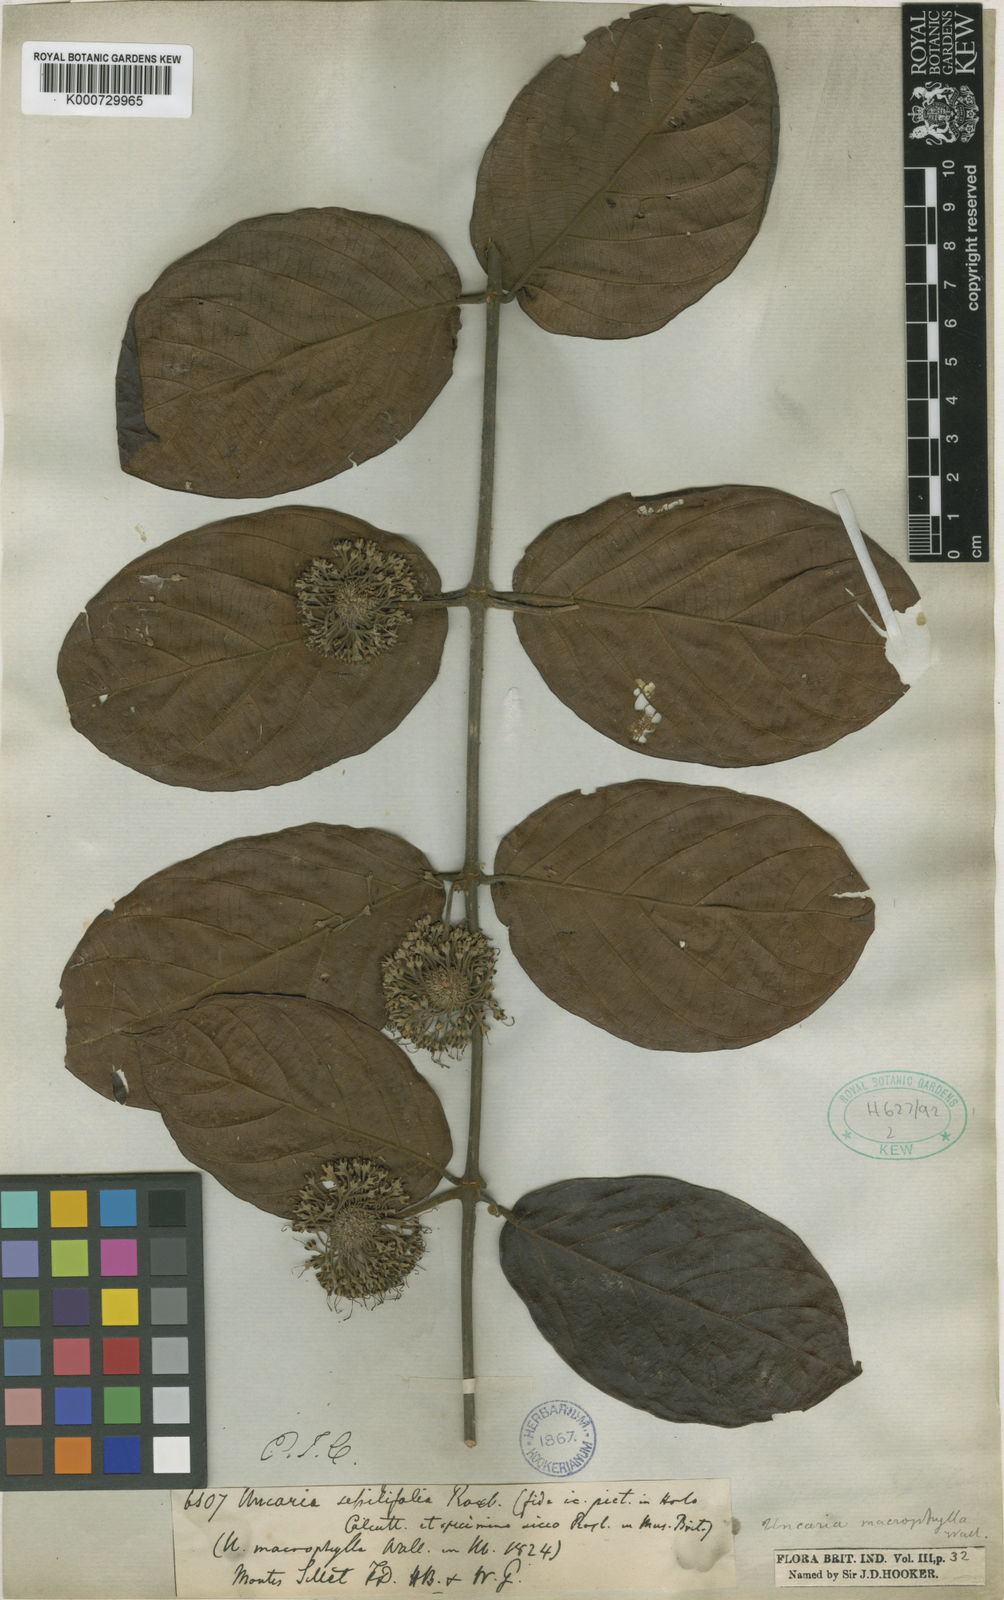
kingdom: Plantae
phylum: Tracheophyta
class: Magnoliopsida
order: Gentianales
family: Rubiaceae
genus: Uncaria
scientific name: Uncaria macrophylla
